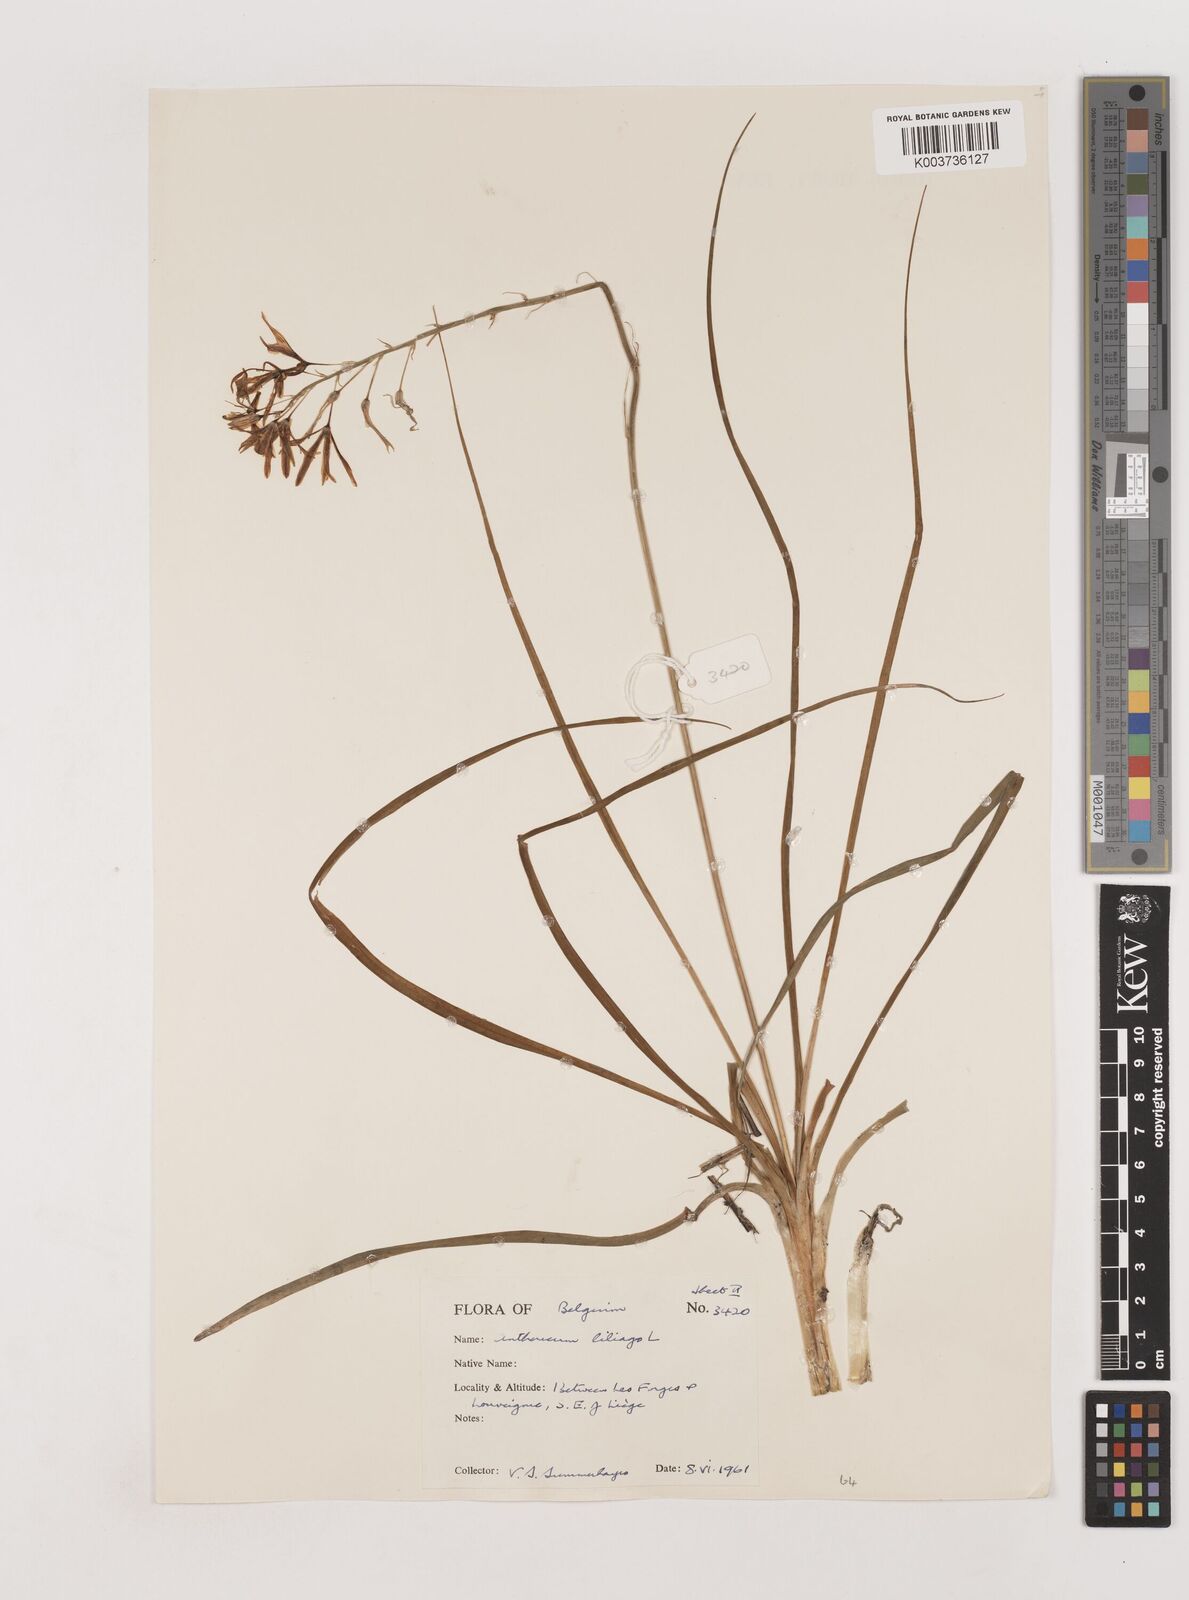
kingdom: Plantae
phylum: Tracheophyta
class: Liliopsida
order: Asparagales
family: Asparagaceae
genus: Anthericum
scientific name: Anthericum liliago
